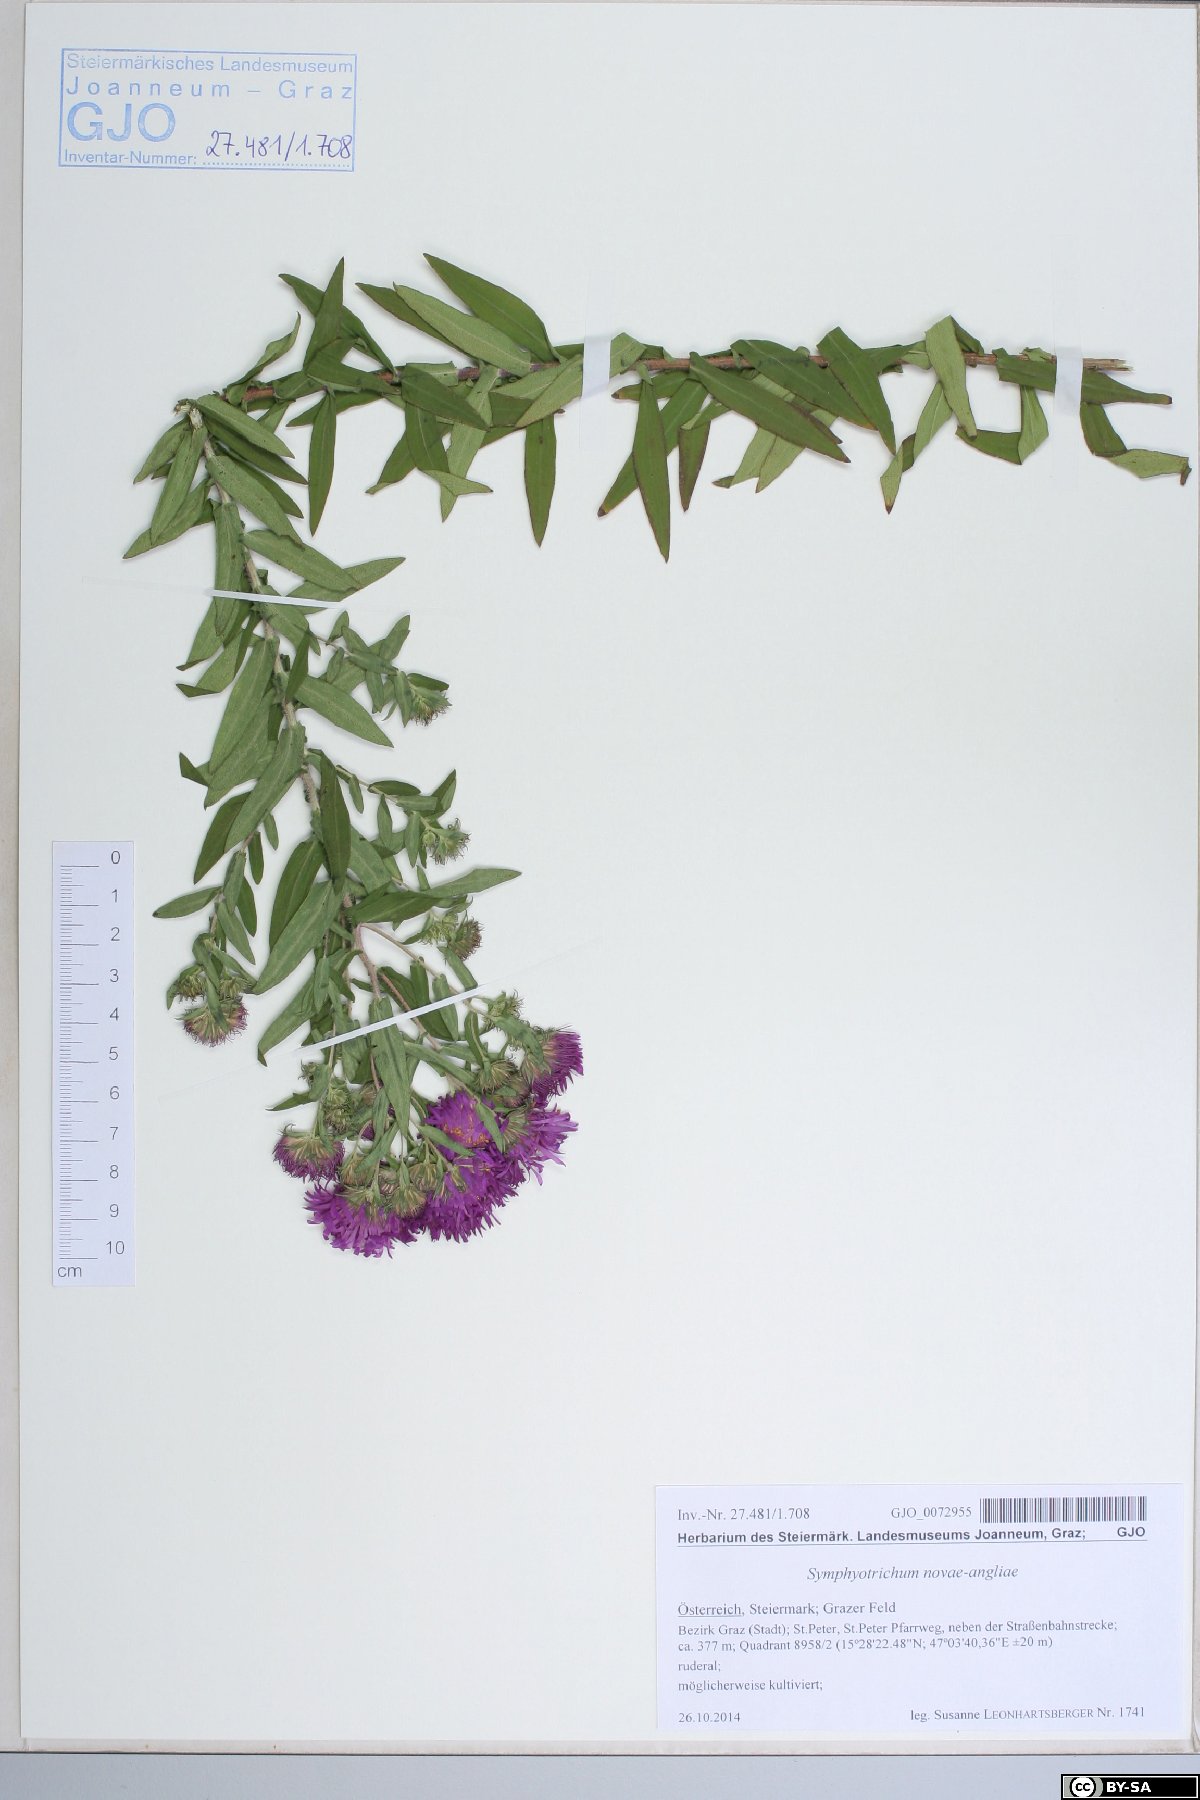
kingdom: Plantae
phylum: Tracheophyta
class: Magnoliopsida
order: Asterales
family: Asteraceae
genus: Symphyotrichum
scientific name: Symphyotrichum novae-angliae
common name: Michaelmas daisy
